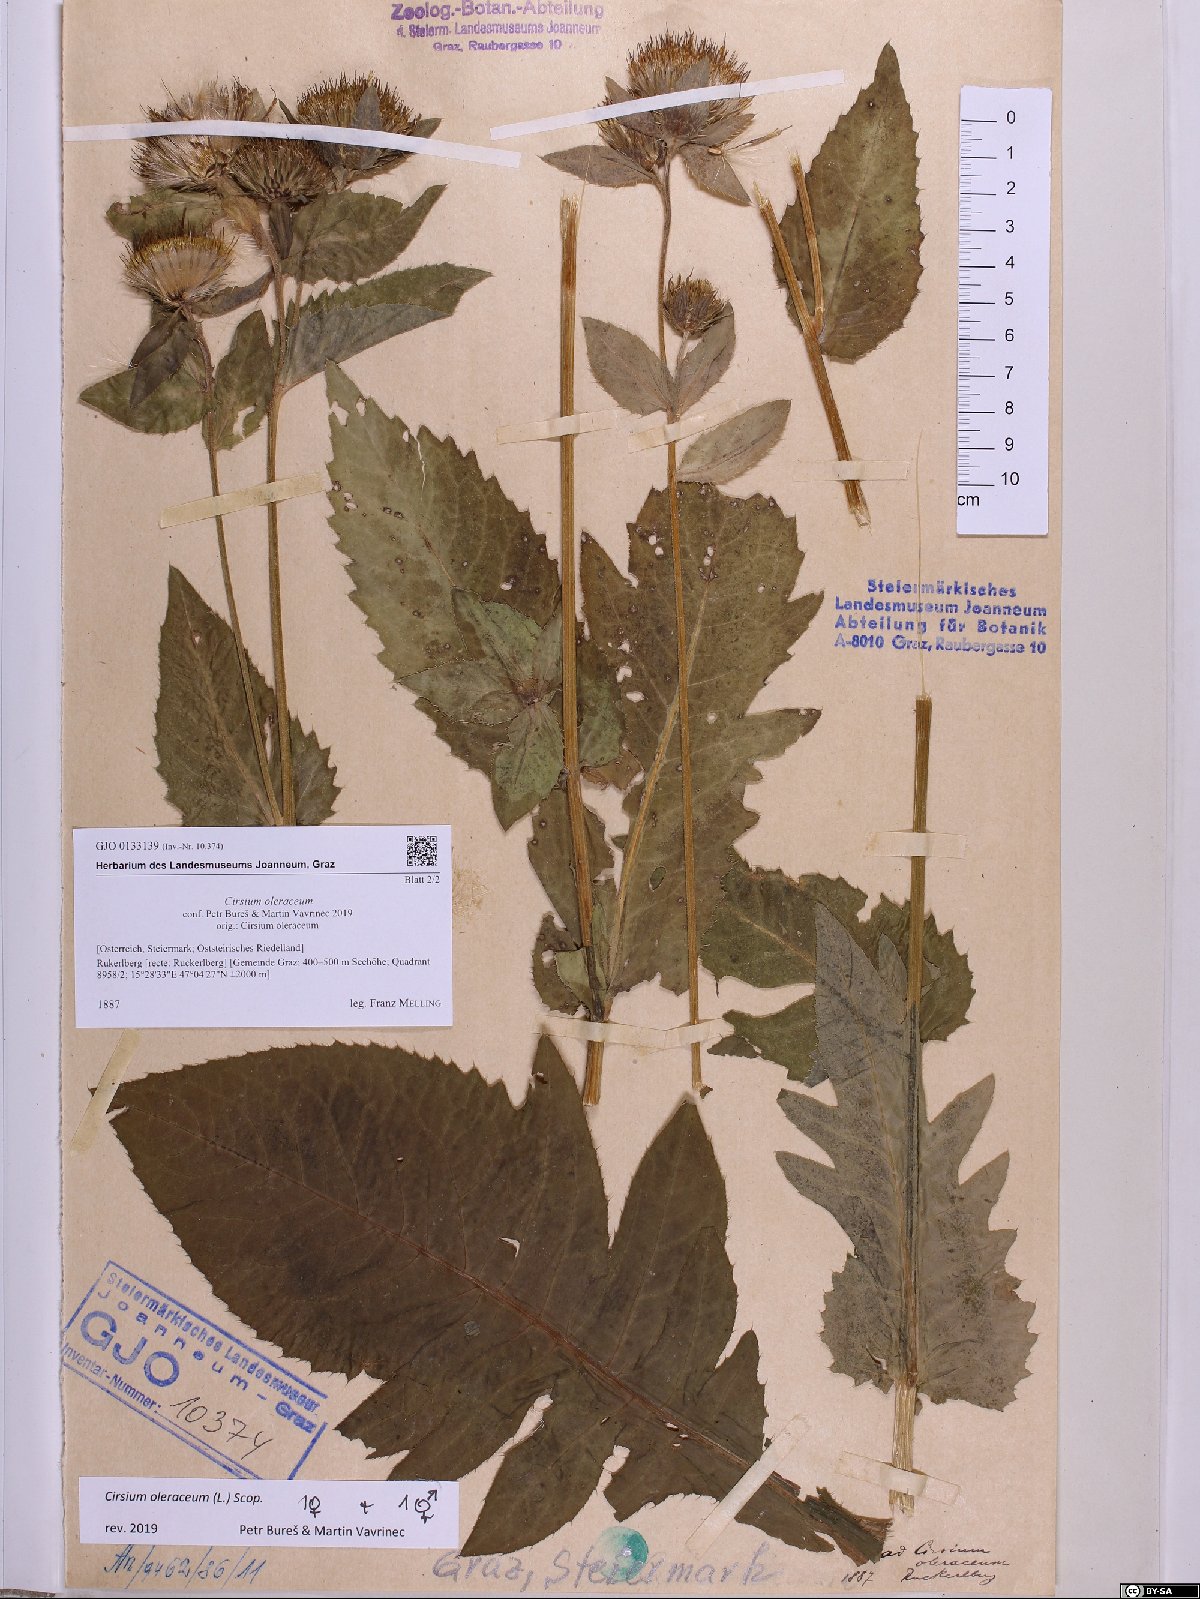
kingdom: Plantae
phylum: Tracheophyta
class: Magnoliopsida
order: Asterales
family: Asteraceae
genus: Cirsium
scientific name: Cirsium oleraceum
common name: Cabbage thistle
